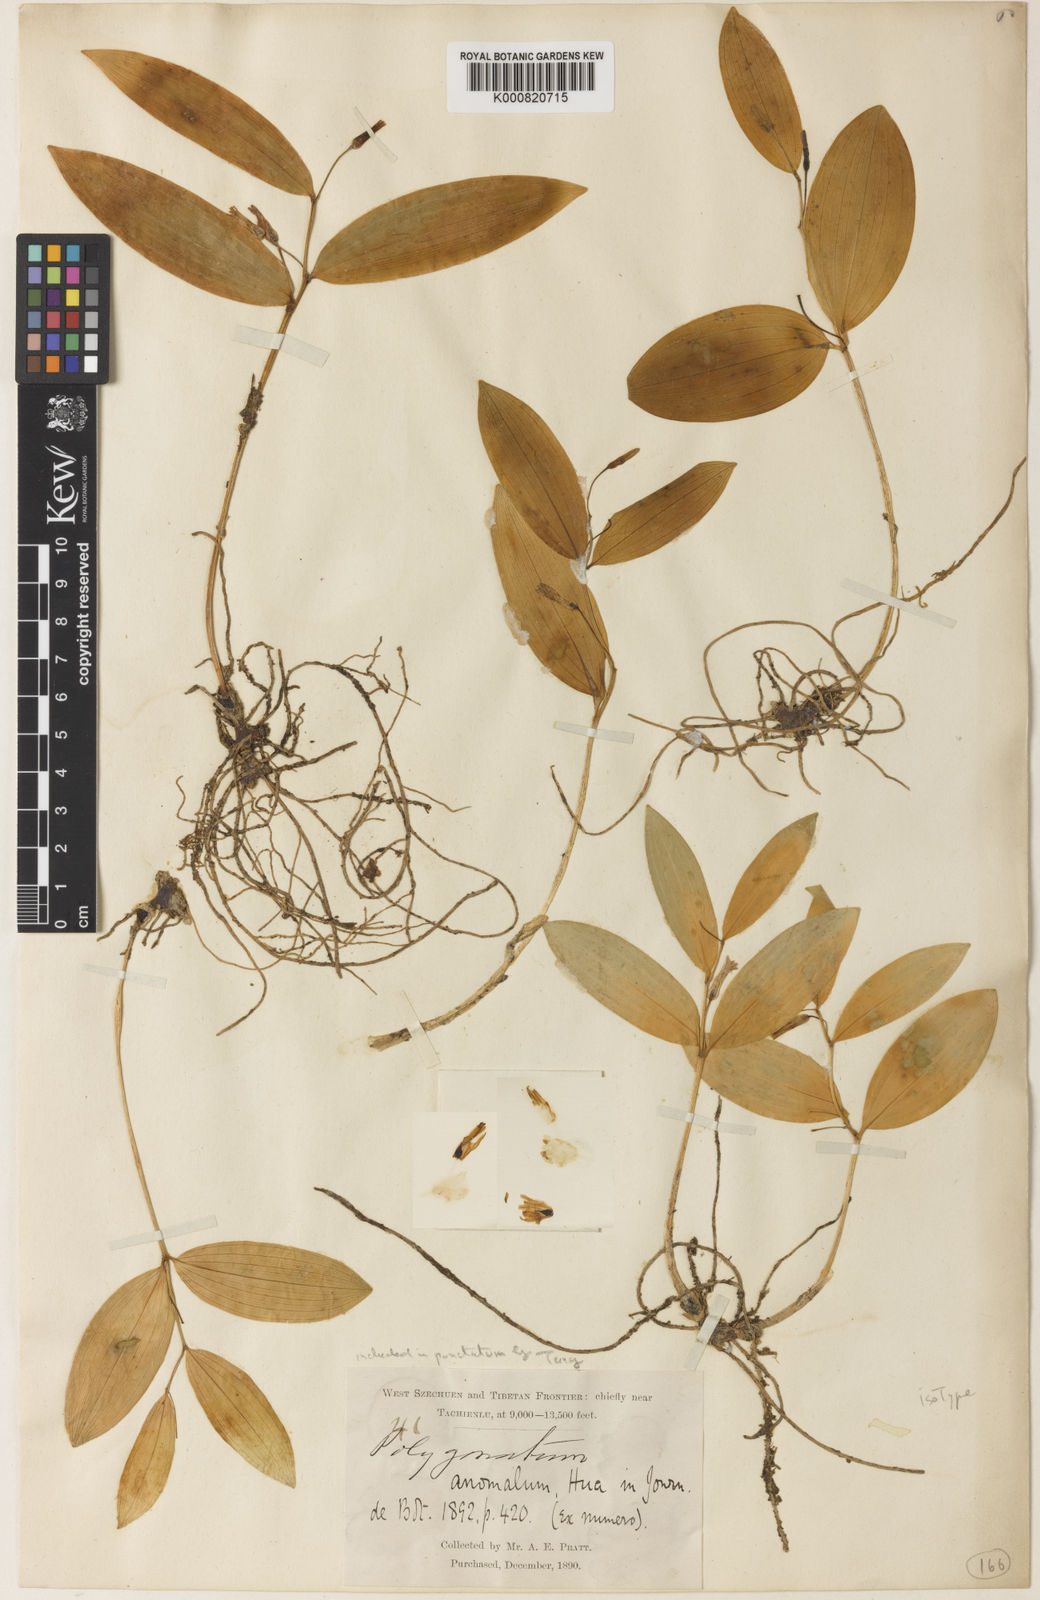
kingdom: Plantae
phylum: Tracheophyta
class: Liliopsida
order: Asparagales
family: Asparagaceae
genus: Polygonatum
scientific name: Polygonatum punctatum
